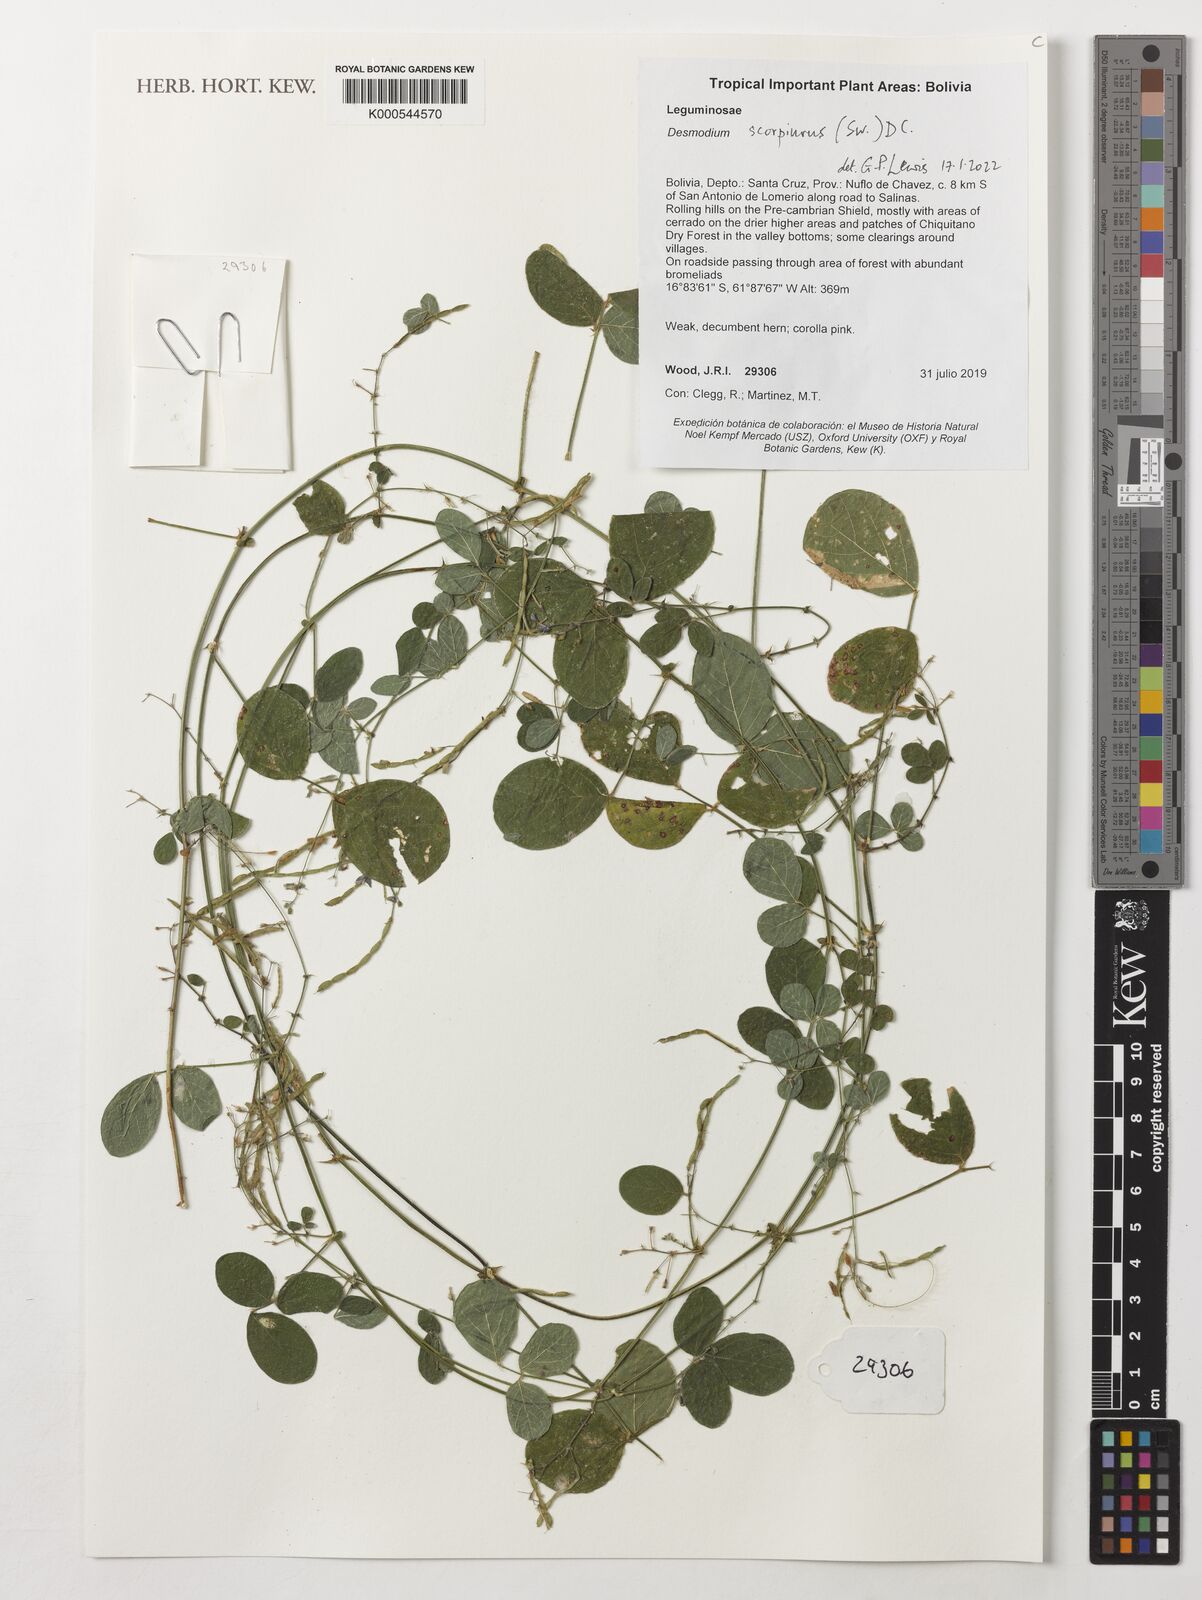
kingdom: Plantae
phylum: Tracheophyta
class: Magnoliopsida
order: Fabales
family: Fabaceae
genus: Desmodium
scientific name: Desmodium scorpiurus
